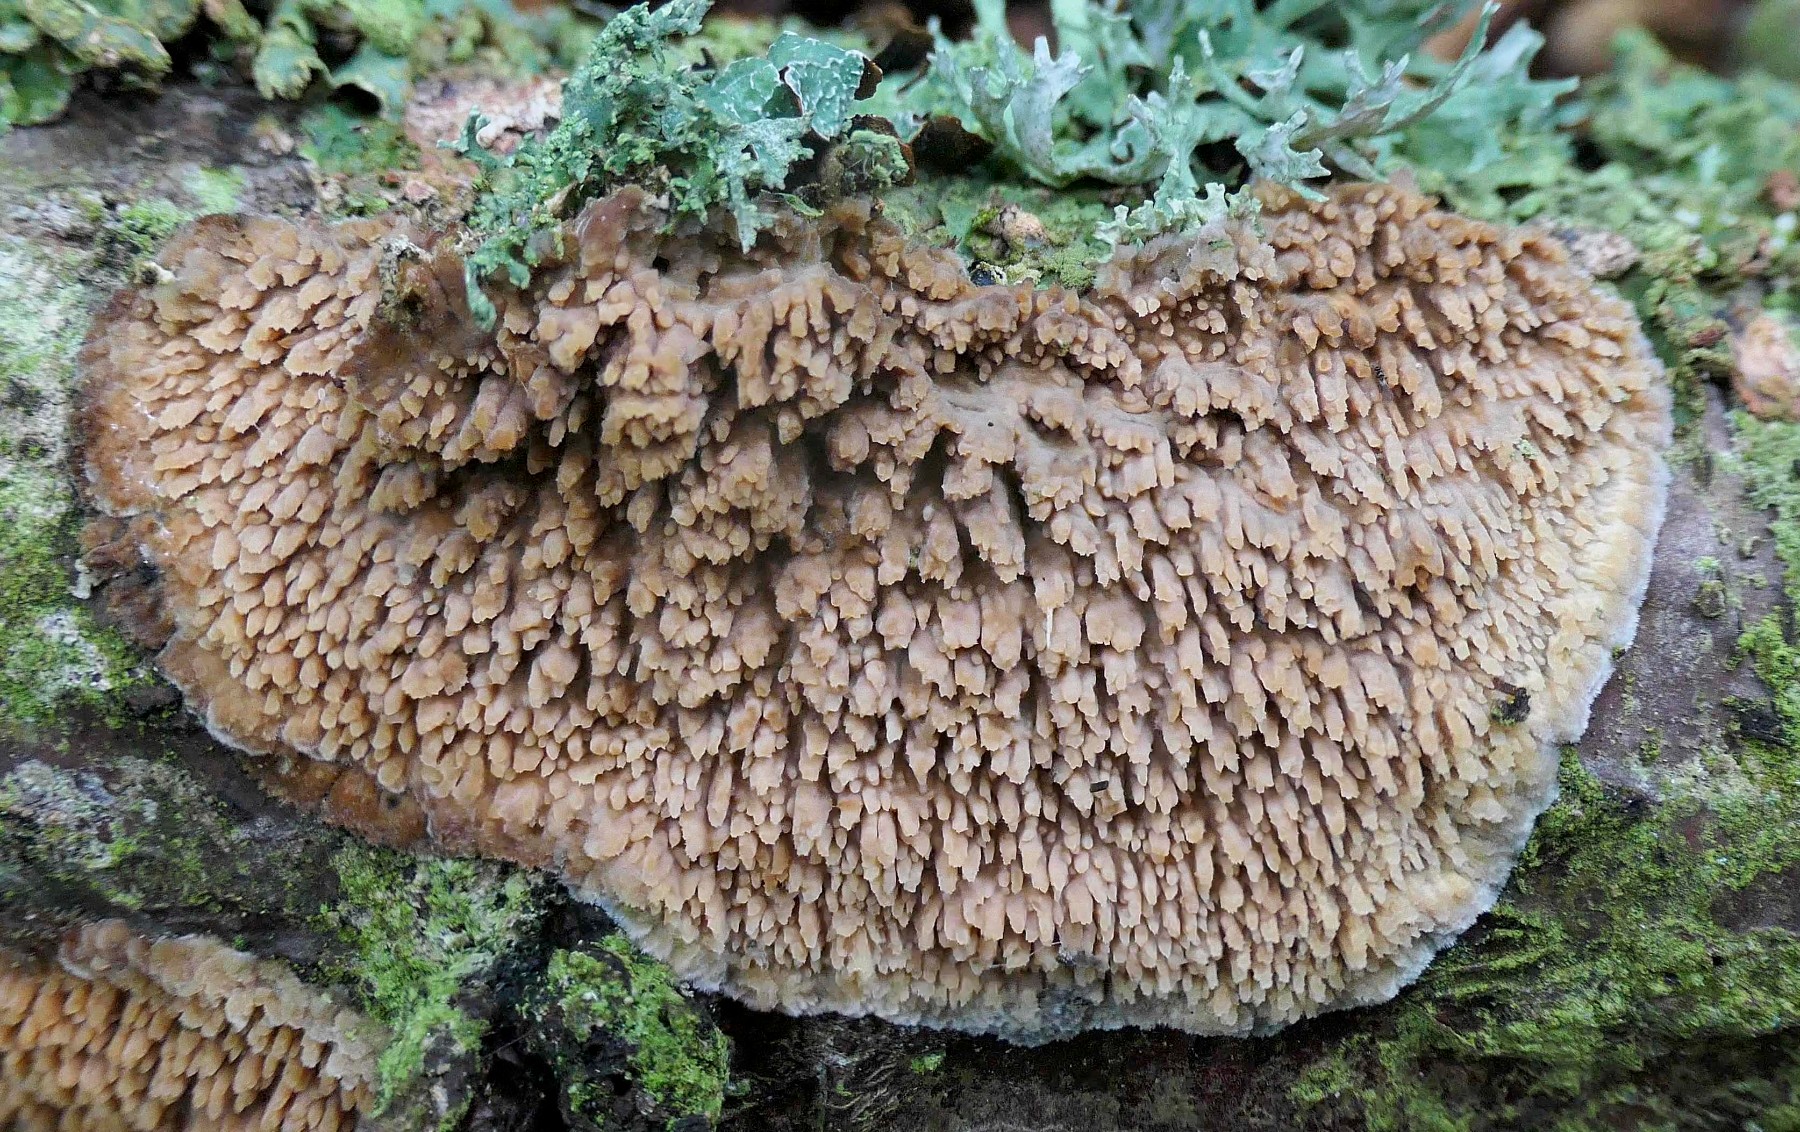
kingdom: Fungi
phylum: Basidiomycota
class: Agaricomycetes
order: Agaricales
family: Radulomycetaceae
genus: Radulomyces
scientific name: Radulomyces molaris
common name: tandet naftalinskind
